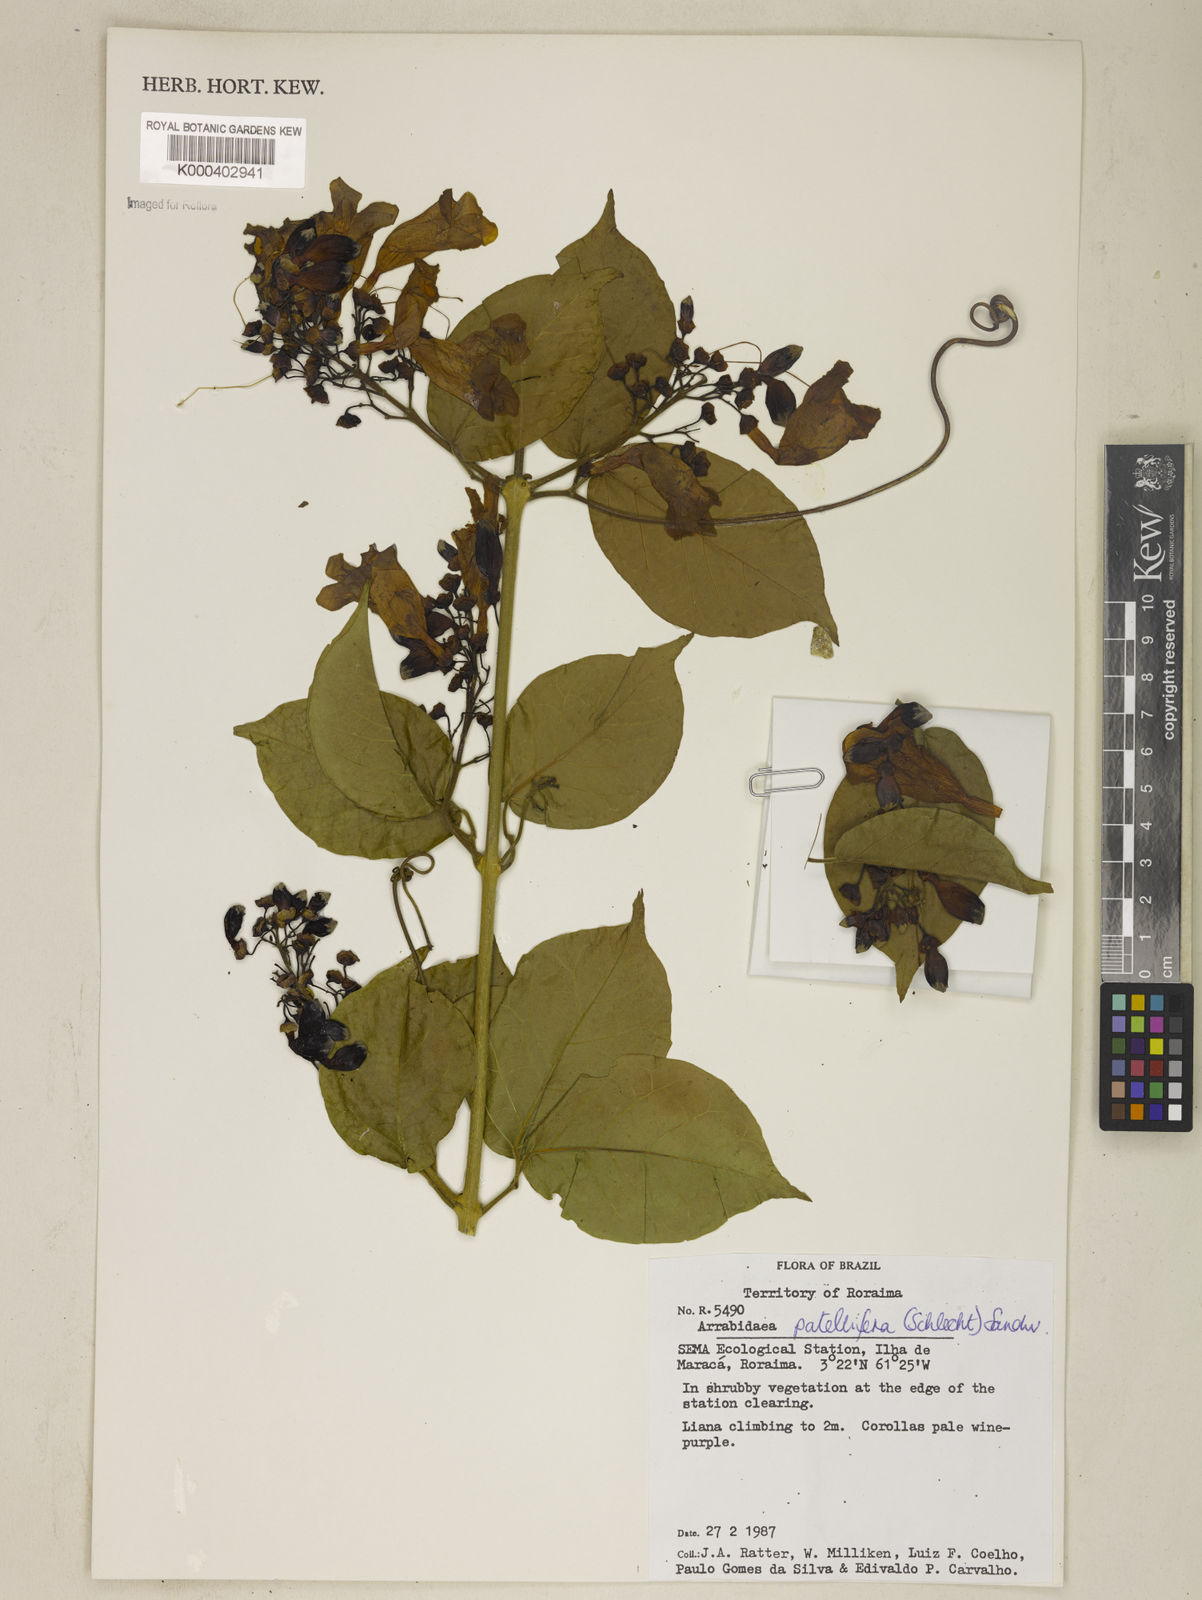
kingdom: Plantae
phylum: Tracheophyta
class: Magnoliopsida
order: Lamiales
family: Bignoniaceae
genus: Fridericia
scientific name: Fridericia patellifera
